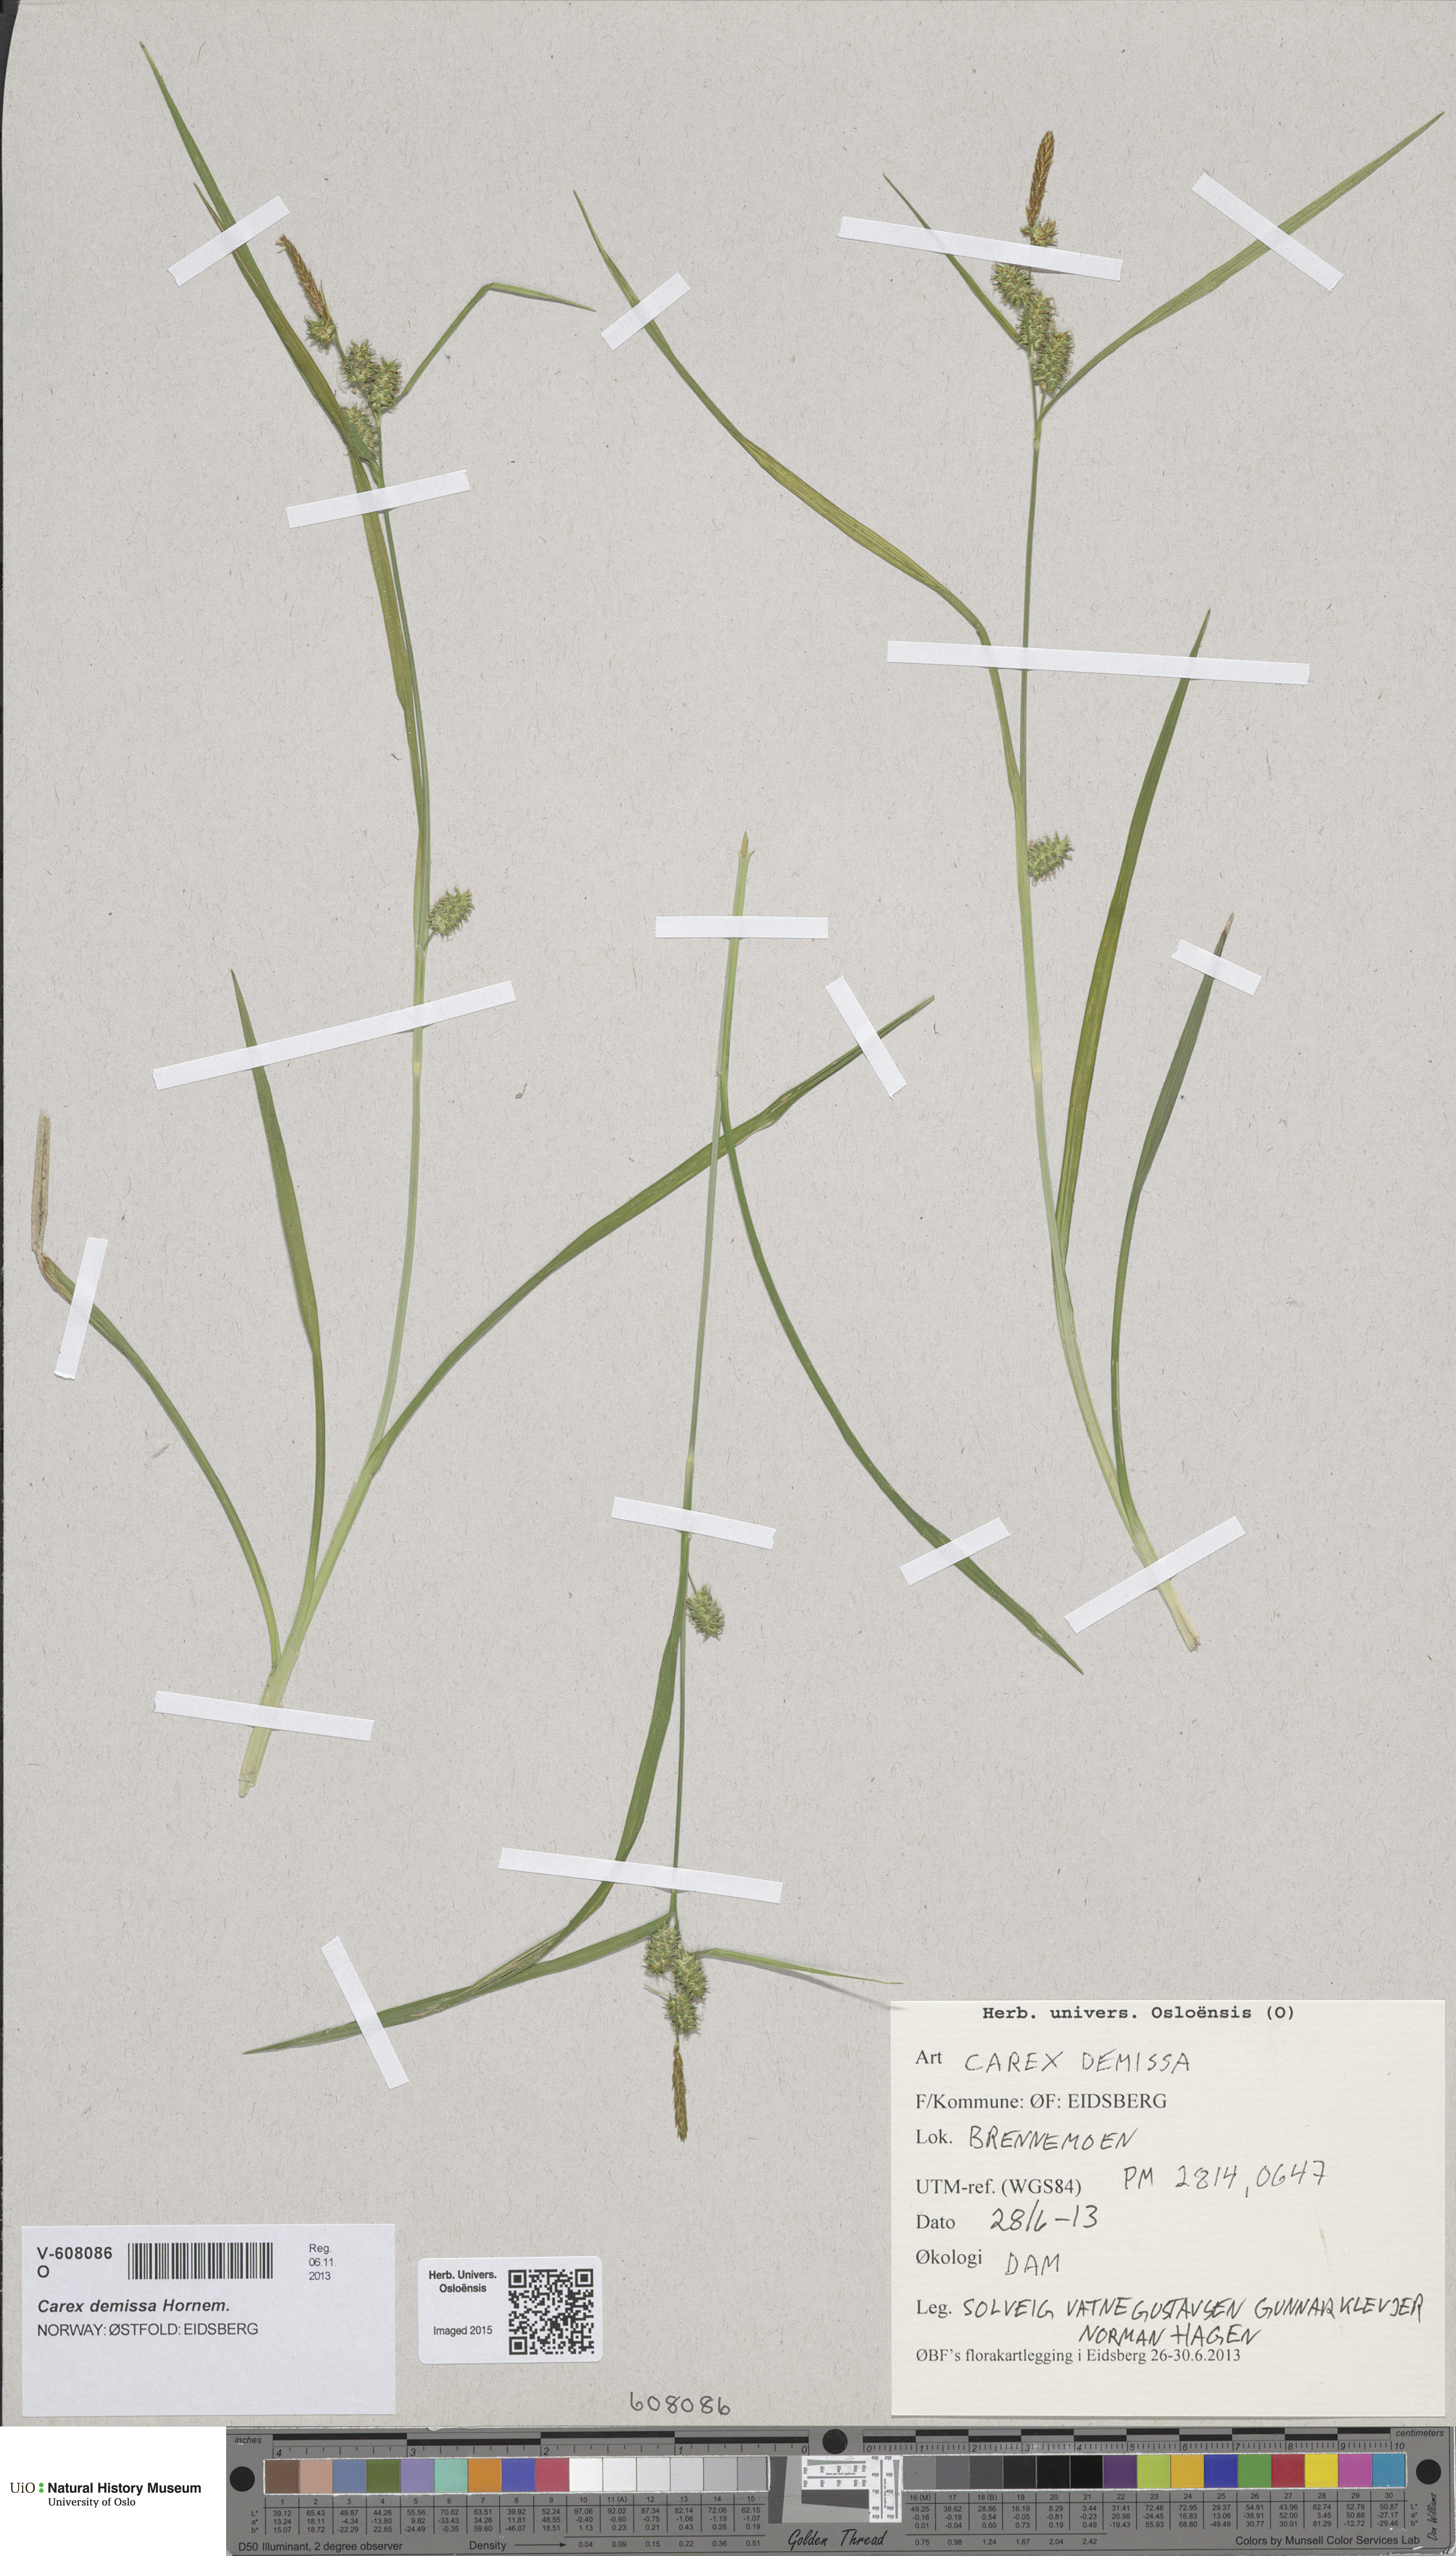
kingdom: Plantae
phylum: Tracheophyta
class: Liliopsida
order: Poales
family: Cyperaceae
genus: Carex
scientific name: Carex demissa
